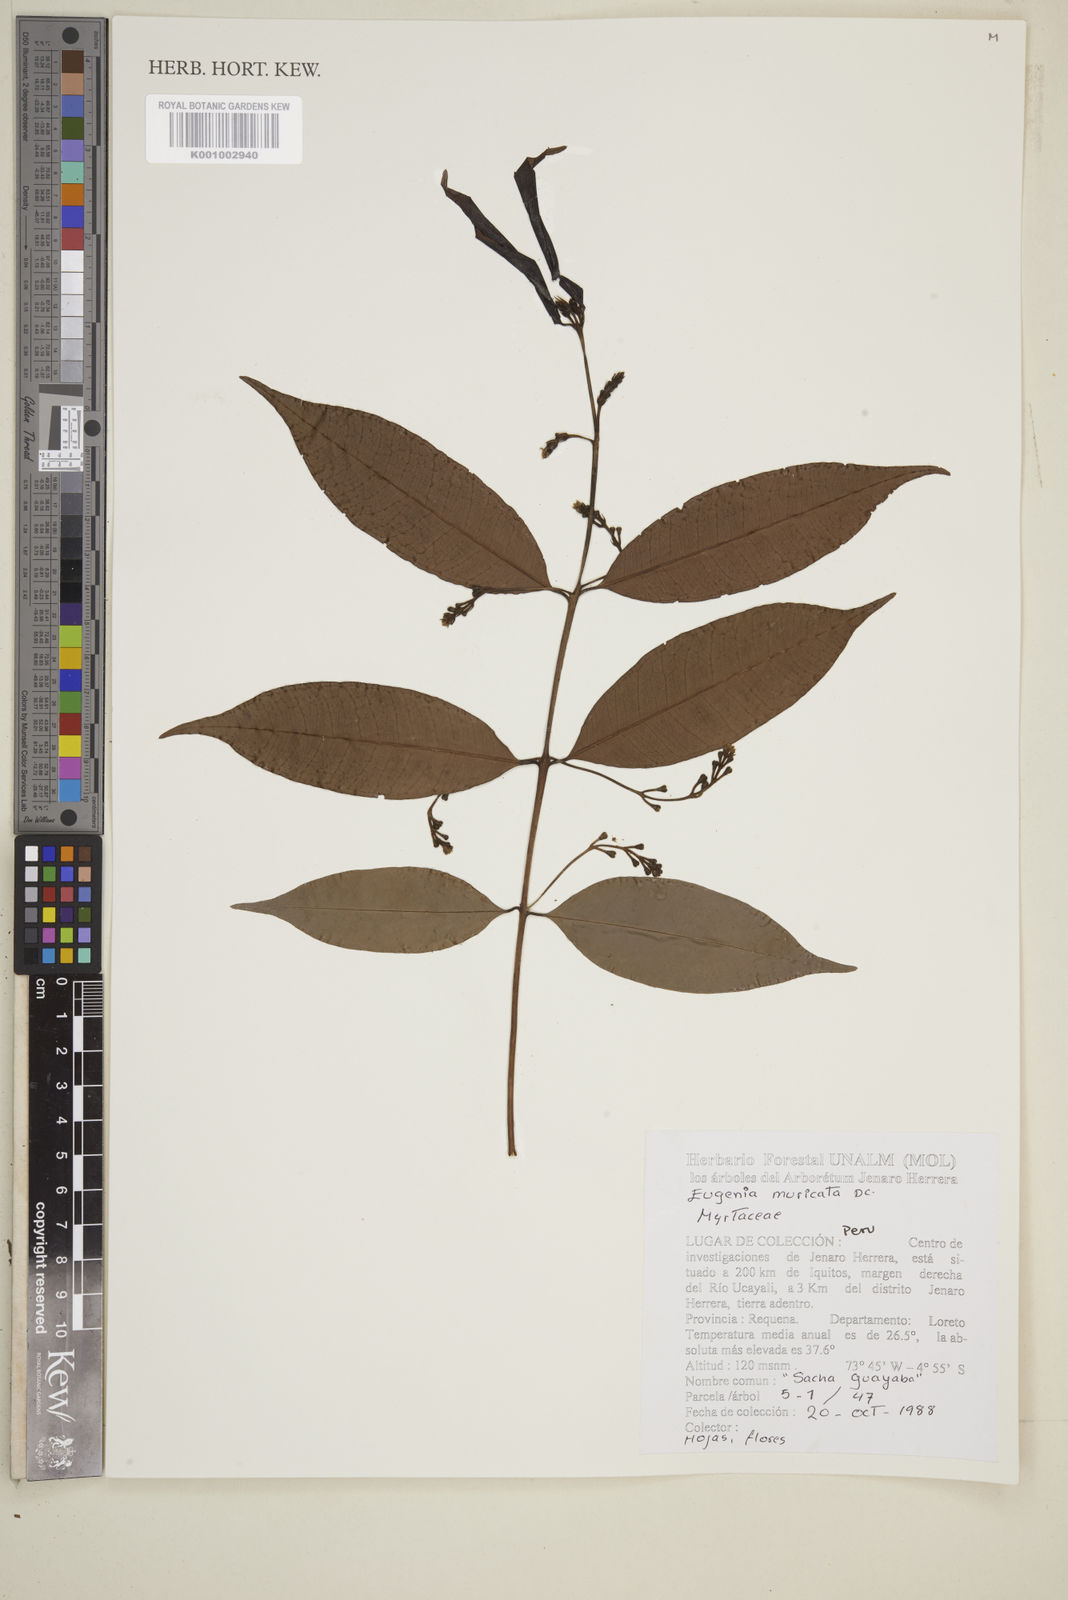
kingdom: Plantae
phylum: Tracheophyta
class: Magnoliopsida
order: Myrtales
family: Myrtaceae
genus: Eugenia
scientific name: Eugenia muricata
